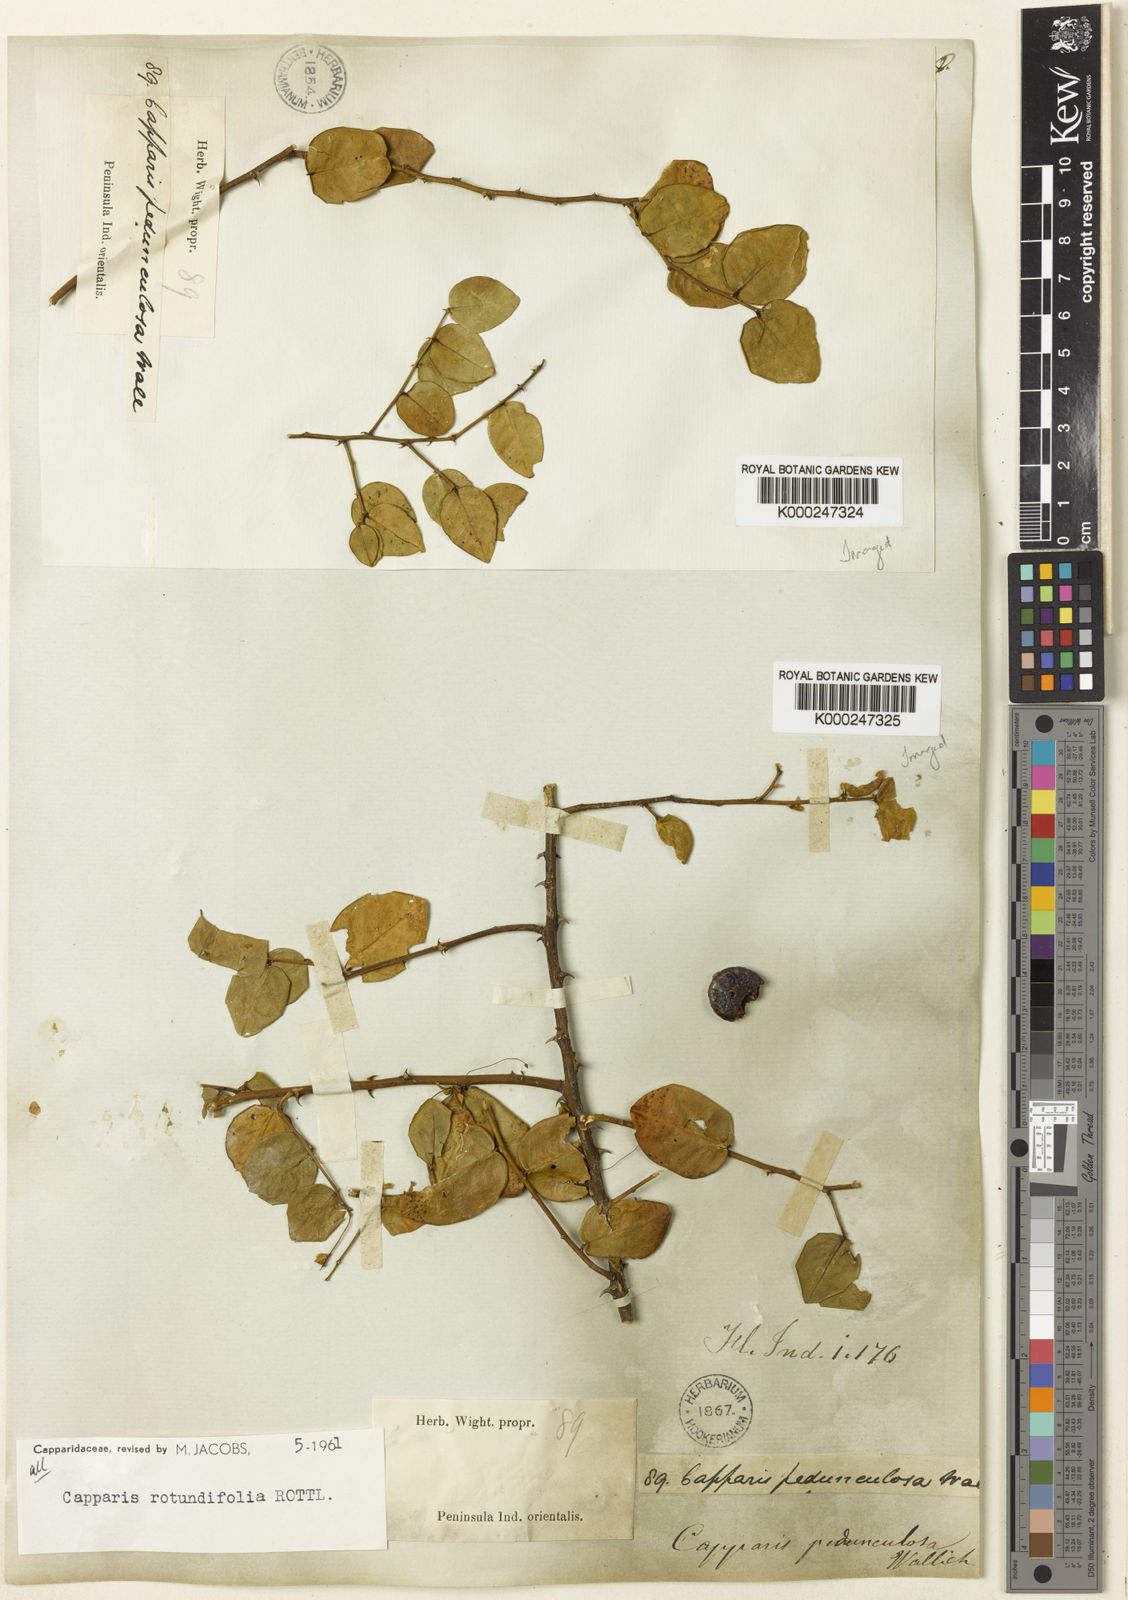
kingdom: Plantae
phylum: Tracheophyta
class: Magnoliopsida
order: Brassicales
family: Capparaceae
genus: Capparis
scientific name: Capparis rotundifolia
